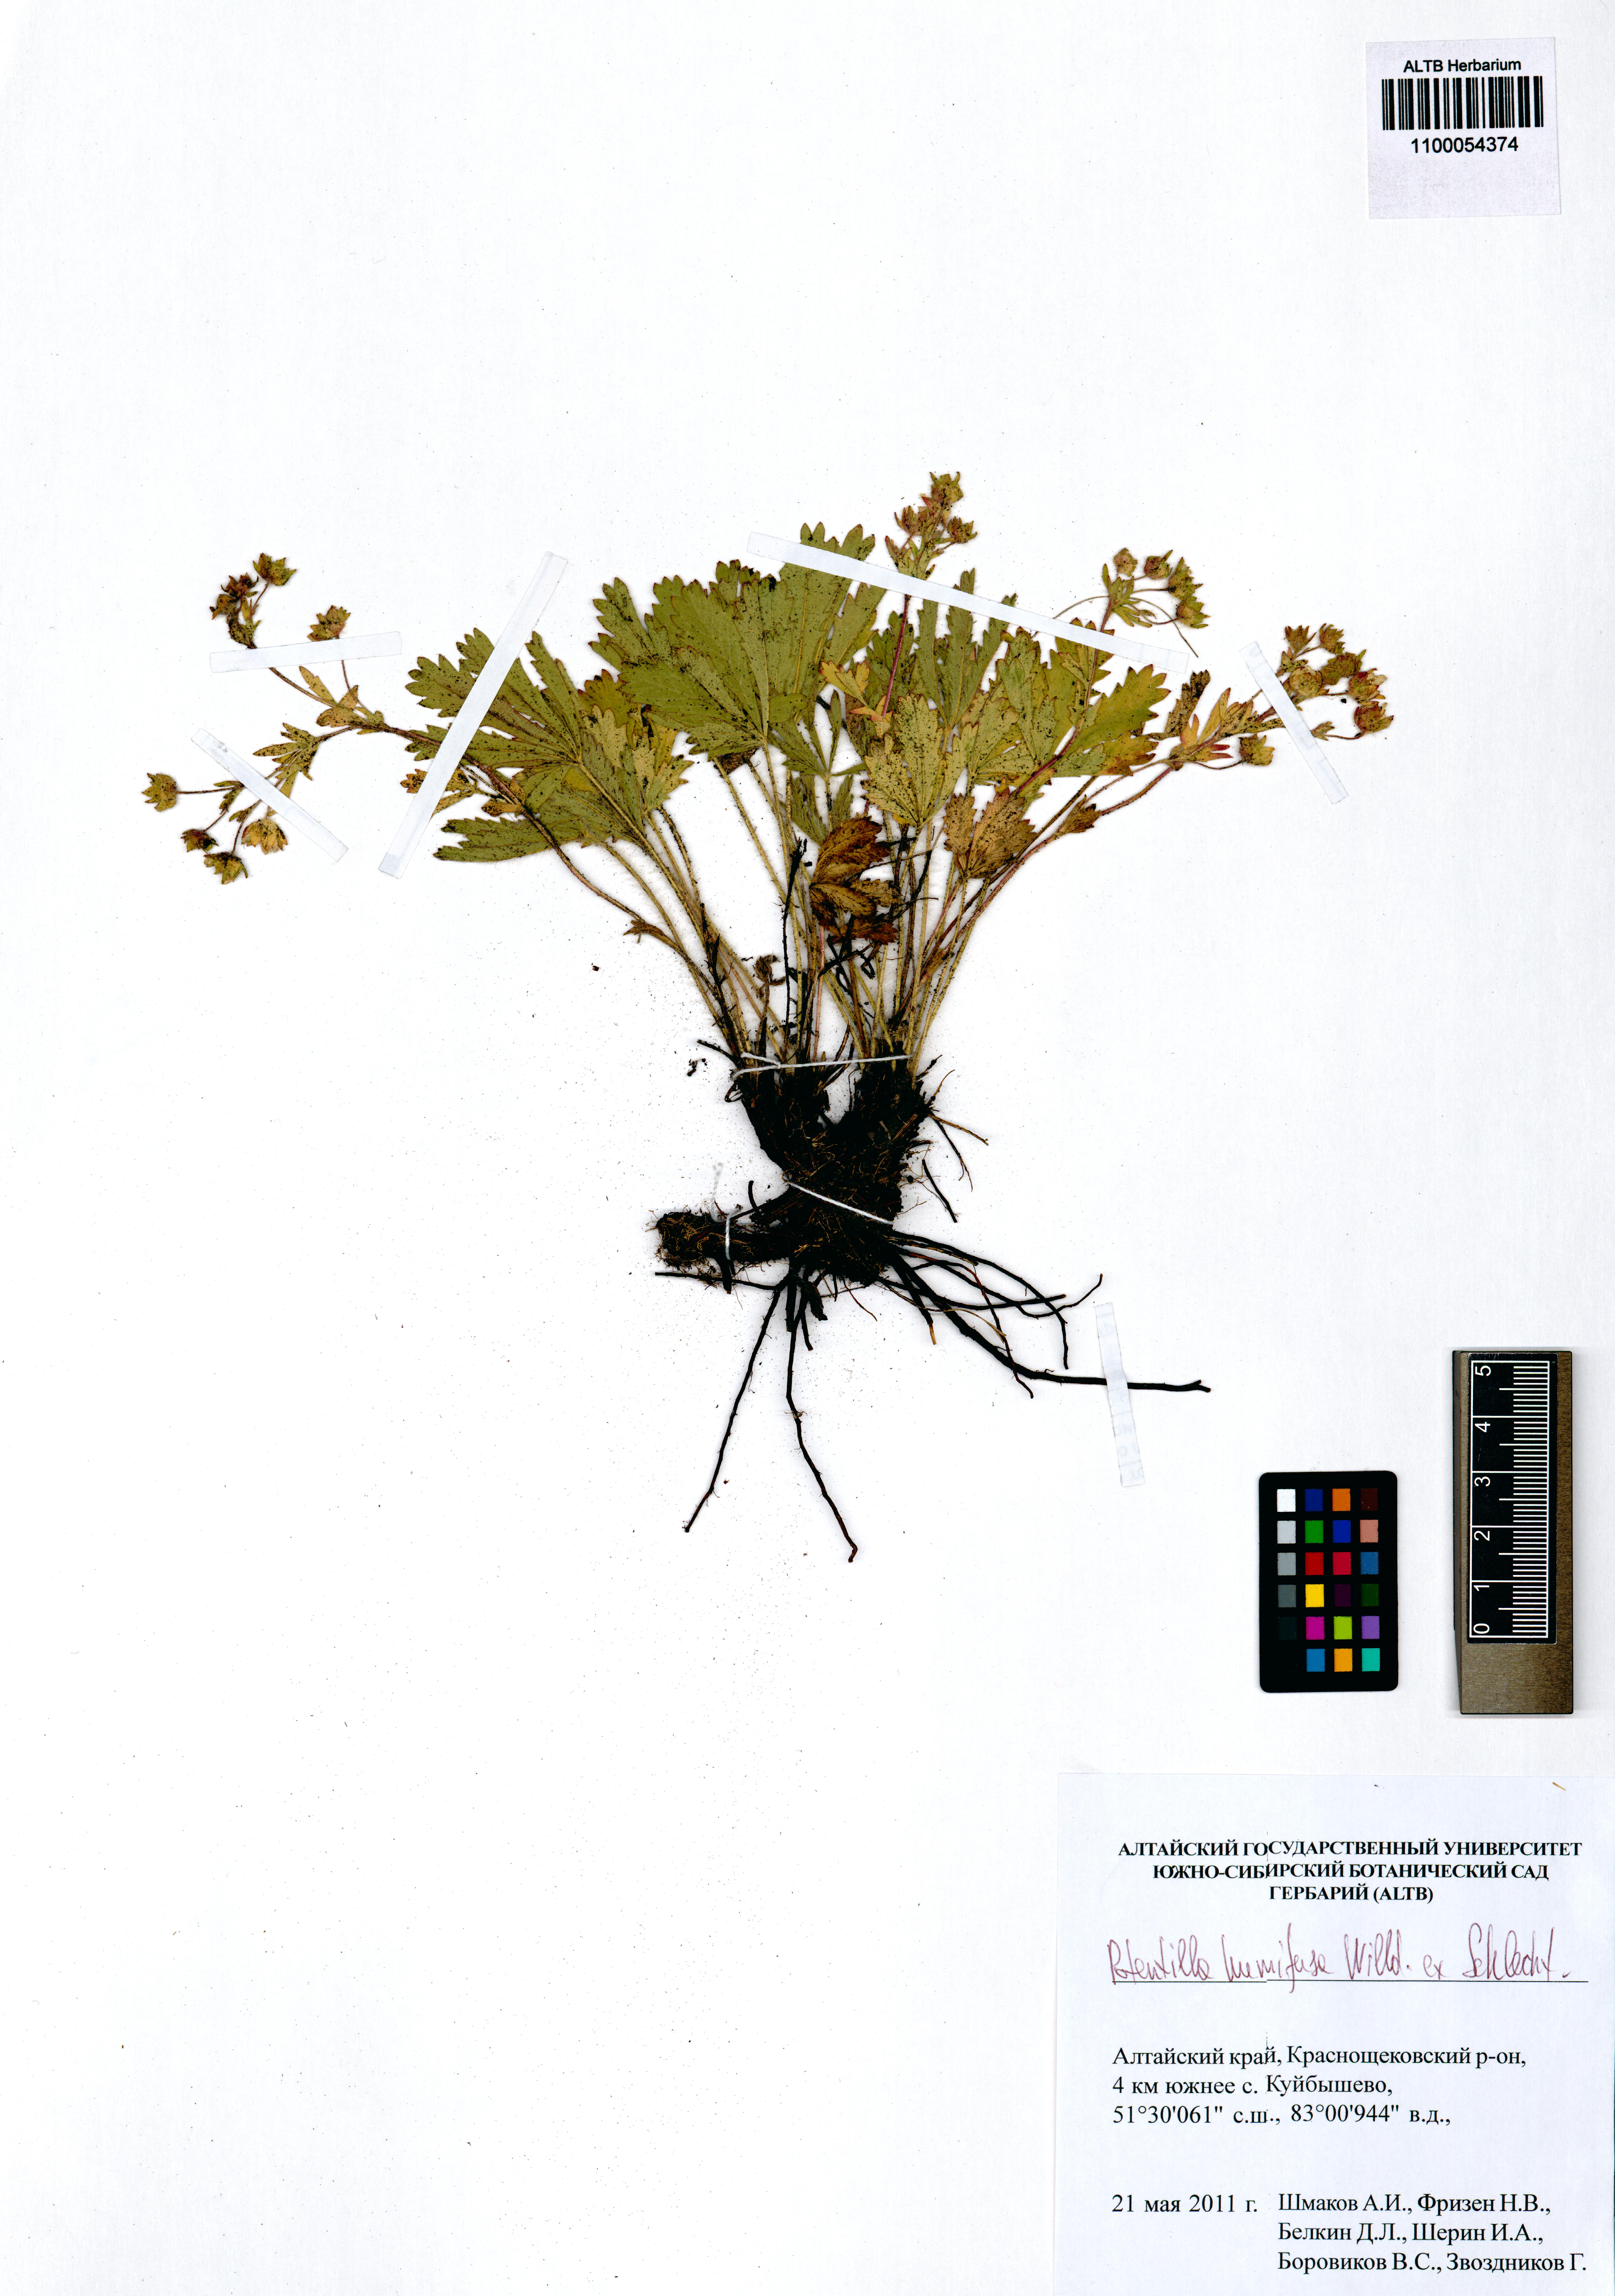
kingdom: Plantae
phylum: Tracheophyta
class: Magnoliopsida
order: Rosales
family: Rosaceae
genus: Potentilla
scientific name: Potentilla humifusa
